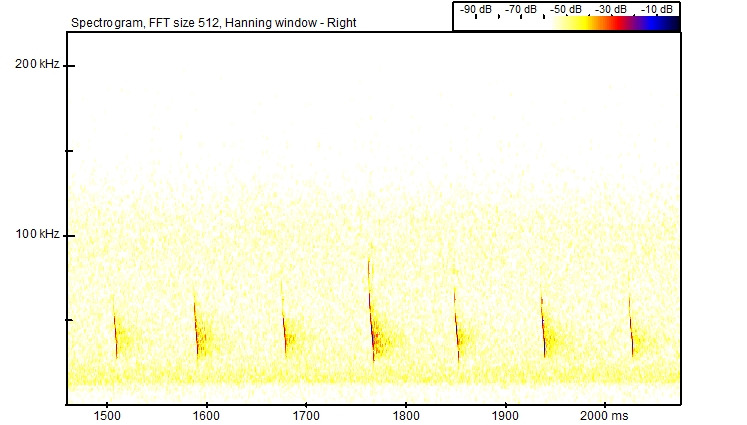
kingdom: Animalia
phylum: Chordata
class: Mammalia
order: Chiroptera
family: Vespertilionidae
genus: Myotis
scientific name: Myotis daubentonii
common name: Vandflagermus
